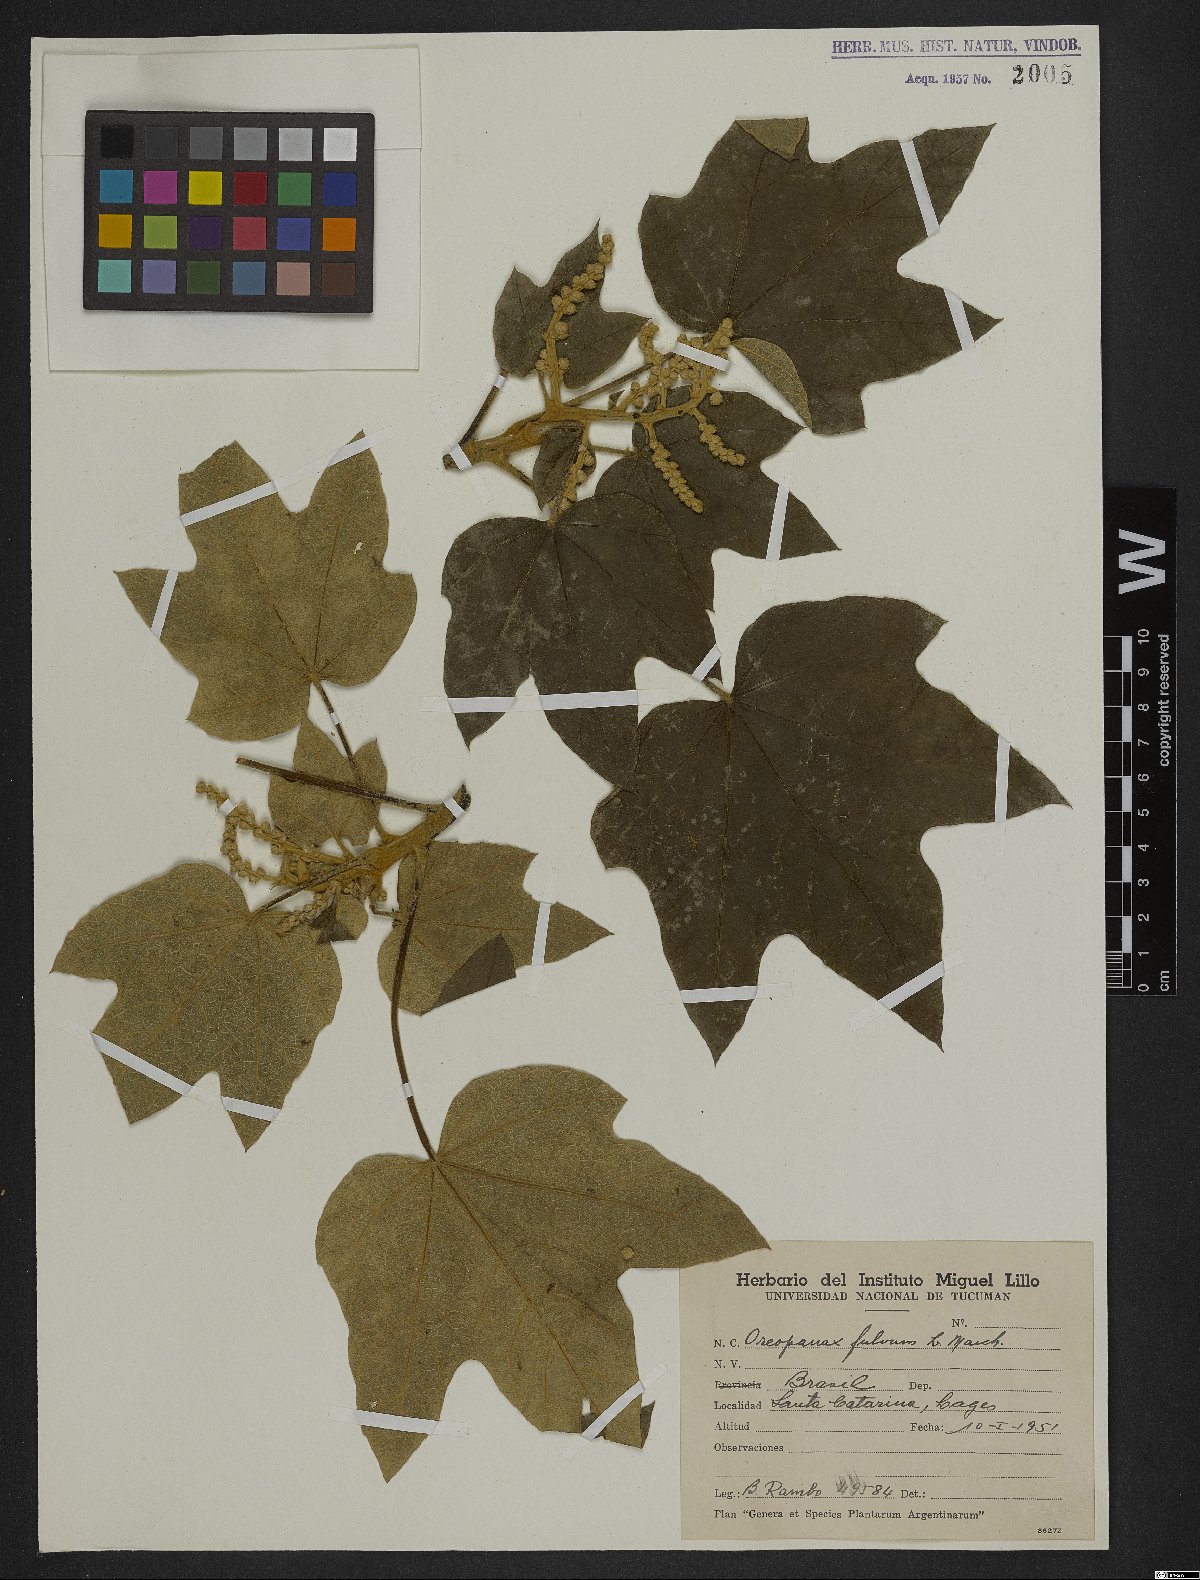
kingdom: Plantae
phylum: Tracheophyta
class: Magnoliopsida
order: Apiales
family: Araliaceae
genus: Oreopanax
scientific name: Oreopanax fulvus
